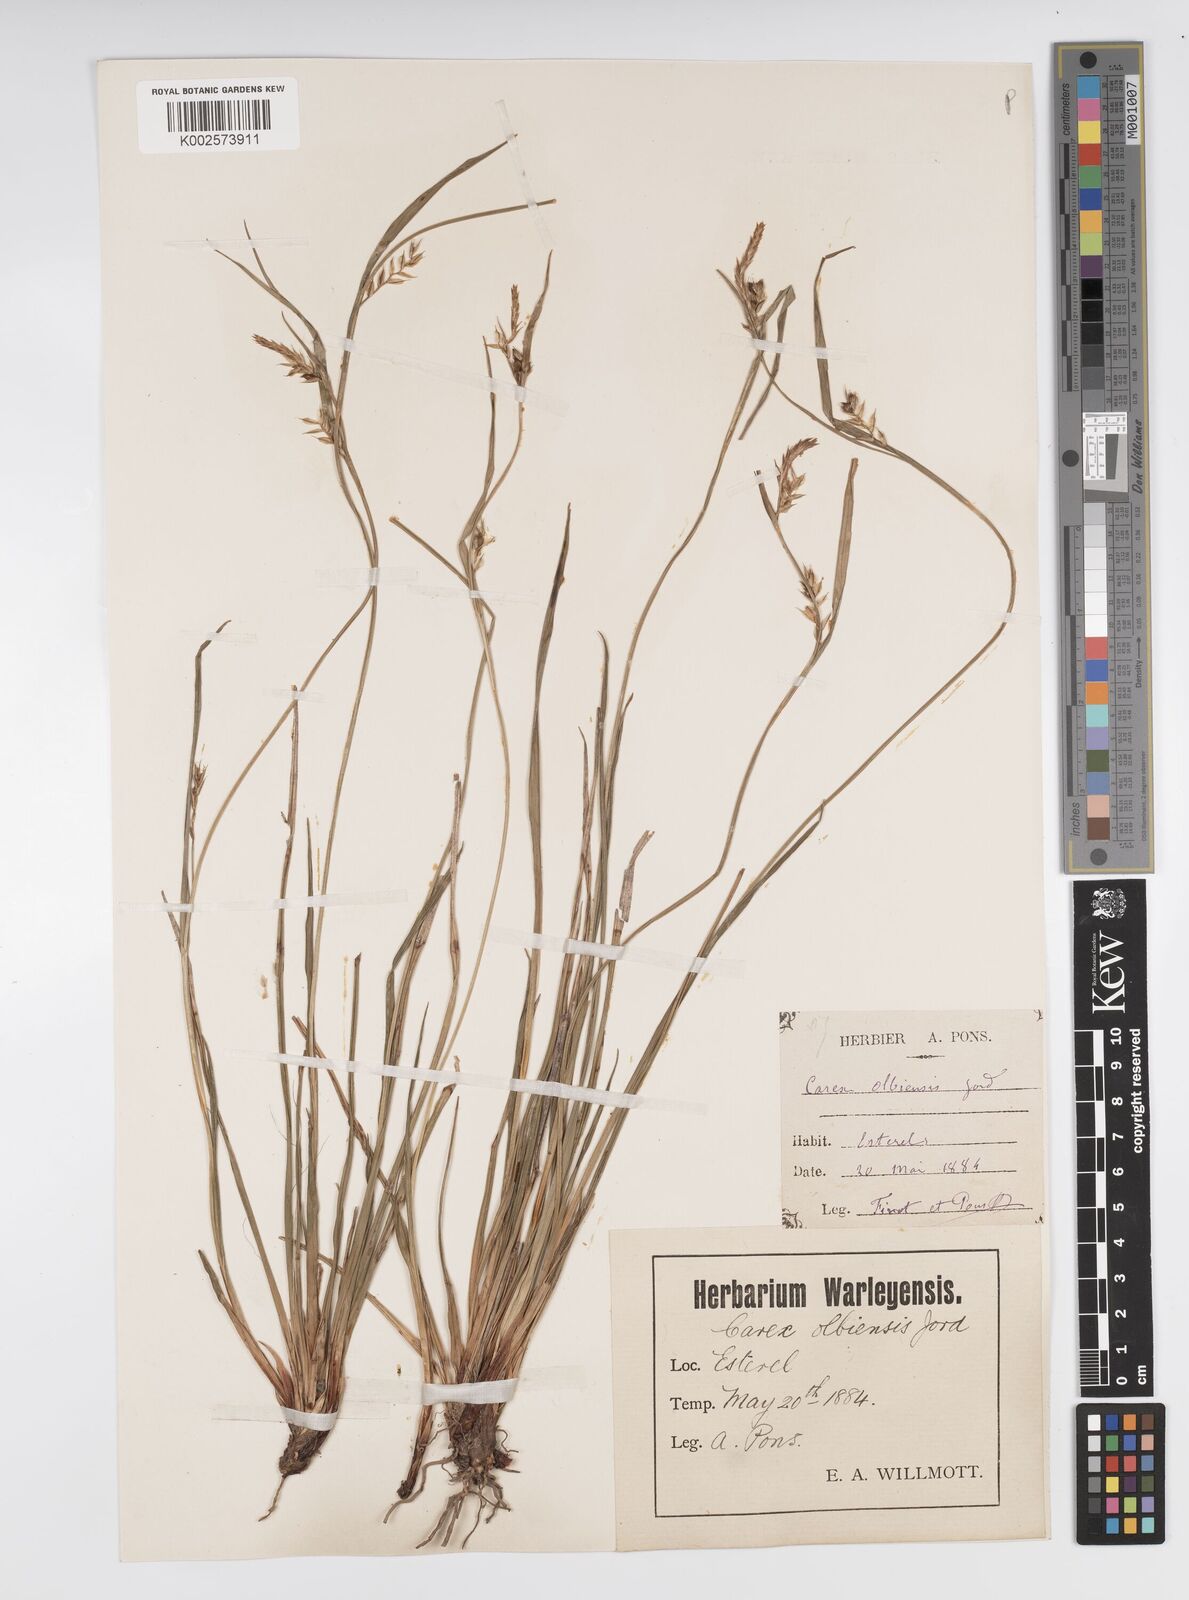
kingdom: Plantae
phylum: Tracheophyta
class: Liliopsida
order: Poales
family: Cyperaceae
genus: Carex
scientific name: Carex olbiensis
